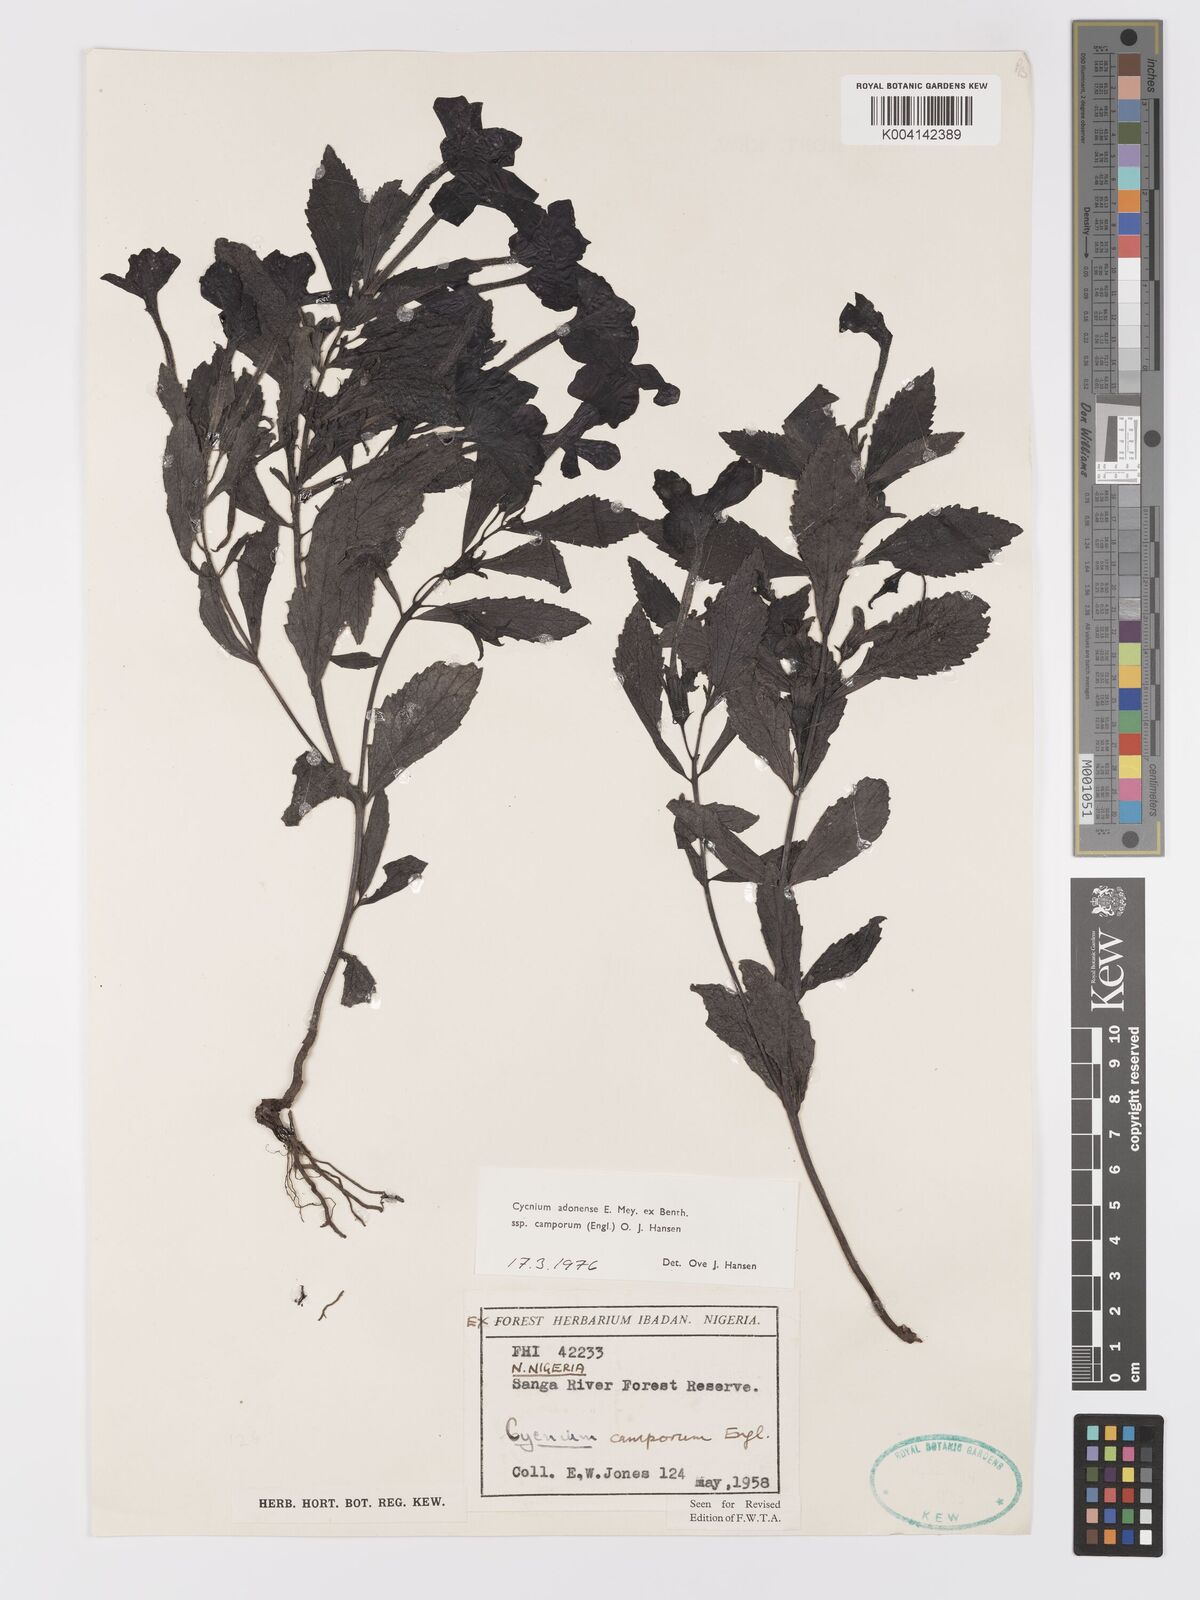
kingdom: Plantae
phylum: Tracheophyta
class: Magnoliopsida
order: Lamiales
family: Orobanchaceae
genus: Cycnium
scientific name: Cycnium adoense
